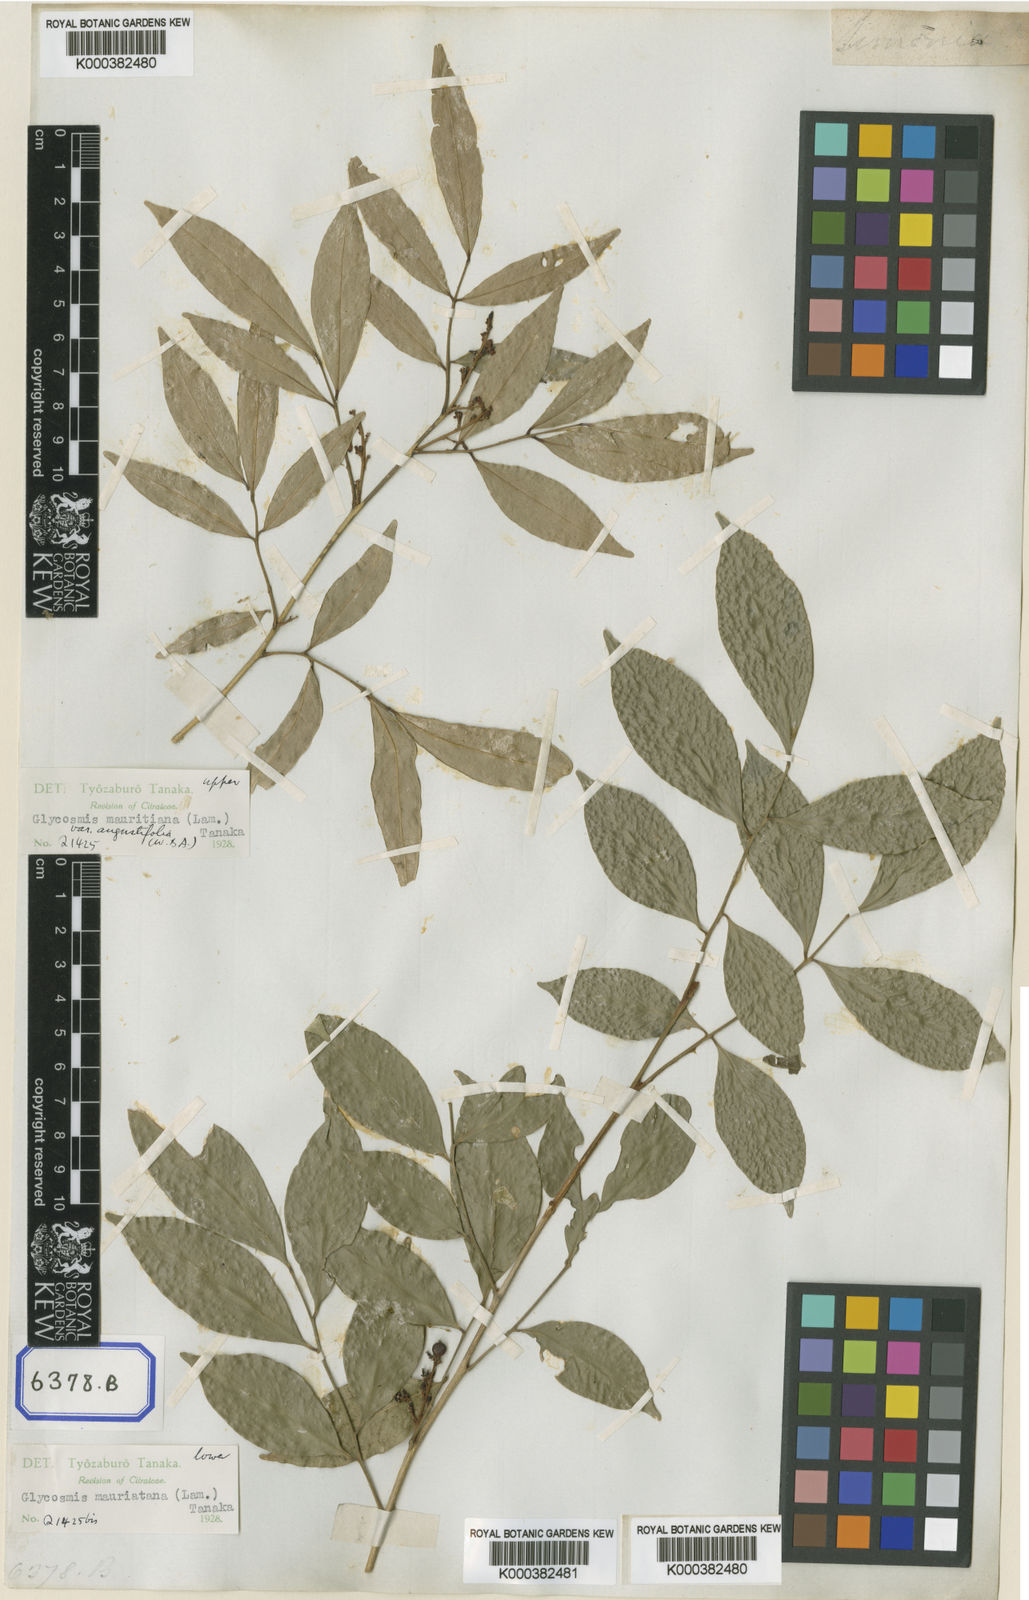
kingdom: Plantae
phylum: Tracheophyta
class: Magnoliopsida
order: Sapindales
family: Rutaceae
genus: Glycosmis
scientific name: Glycosmis mauritiana
